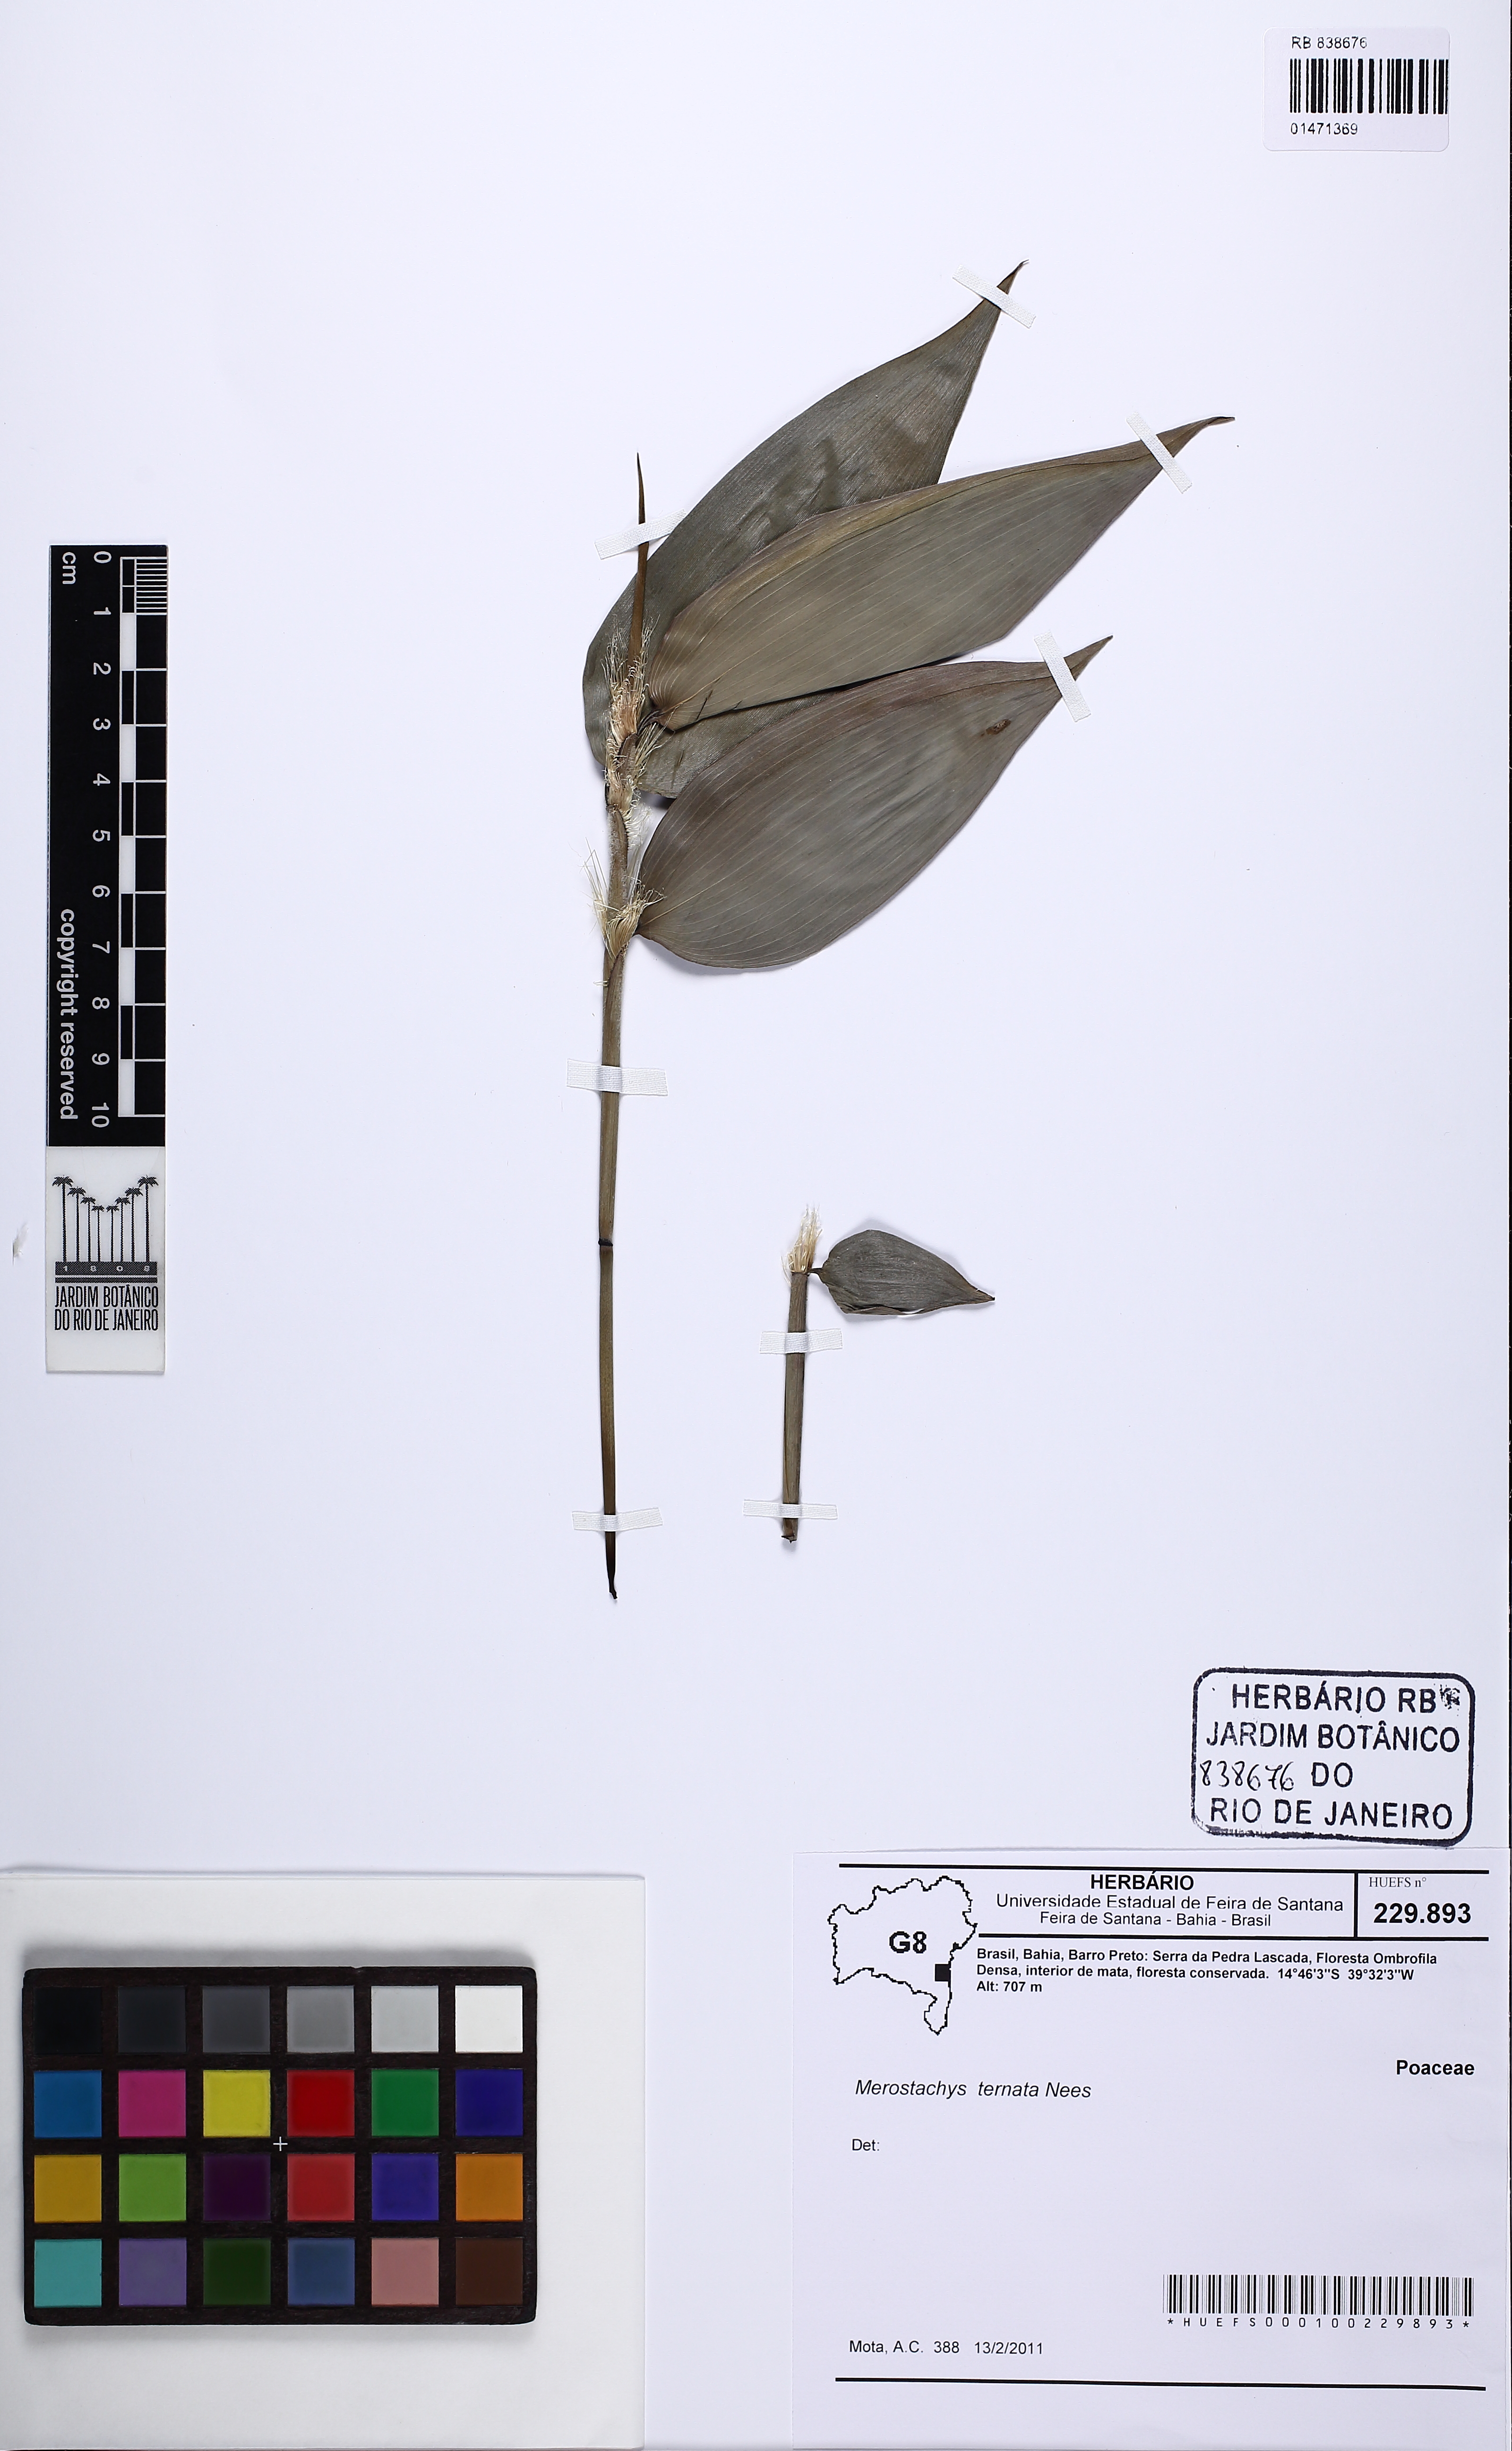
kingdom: Plantae
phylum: Tracheophyta
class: Liliopsida
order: Poales
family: Poaceae
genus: Merostachys
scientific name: Merostachys ternata
